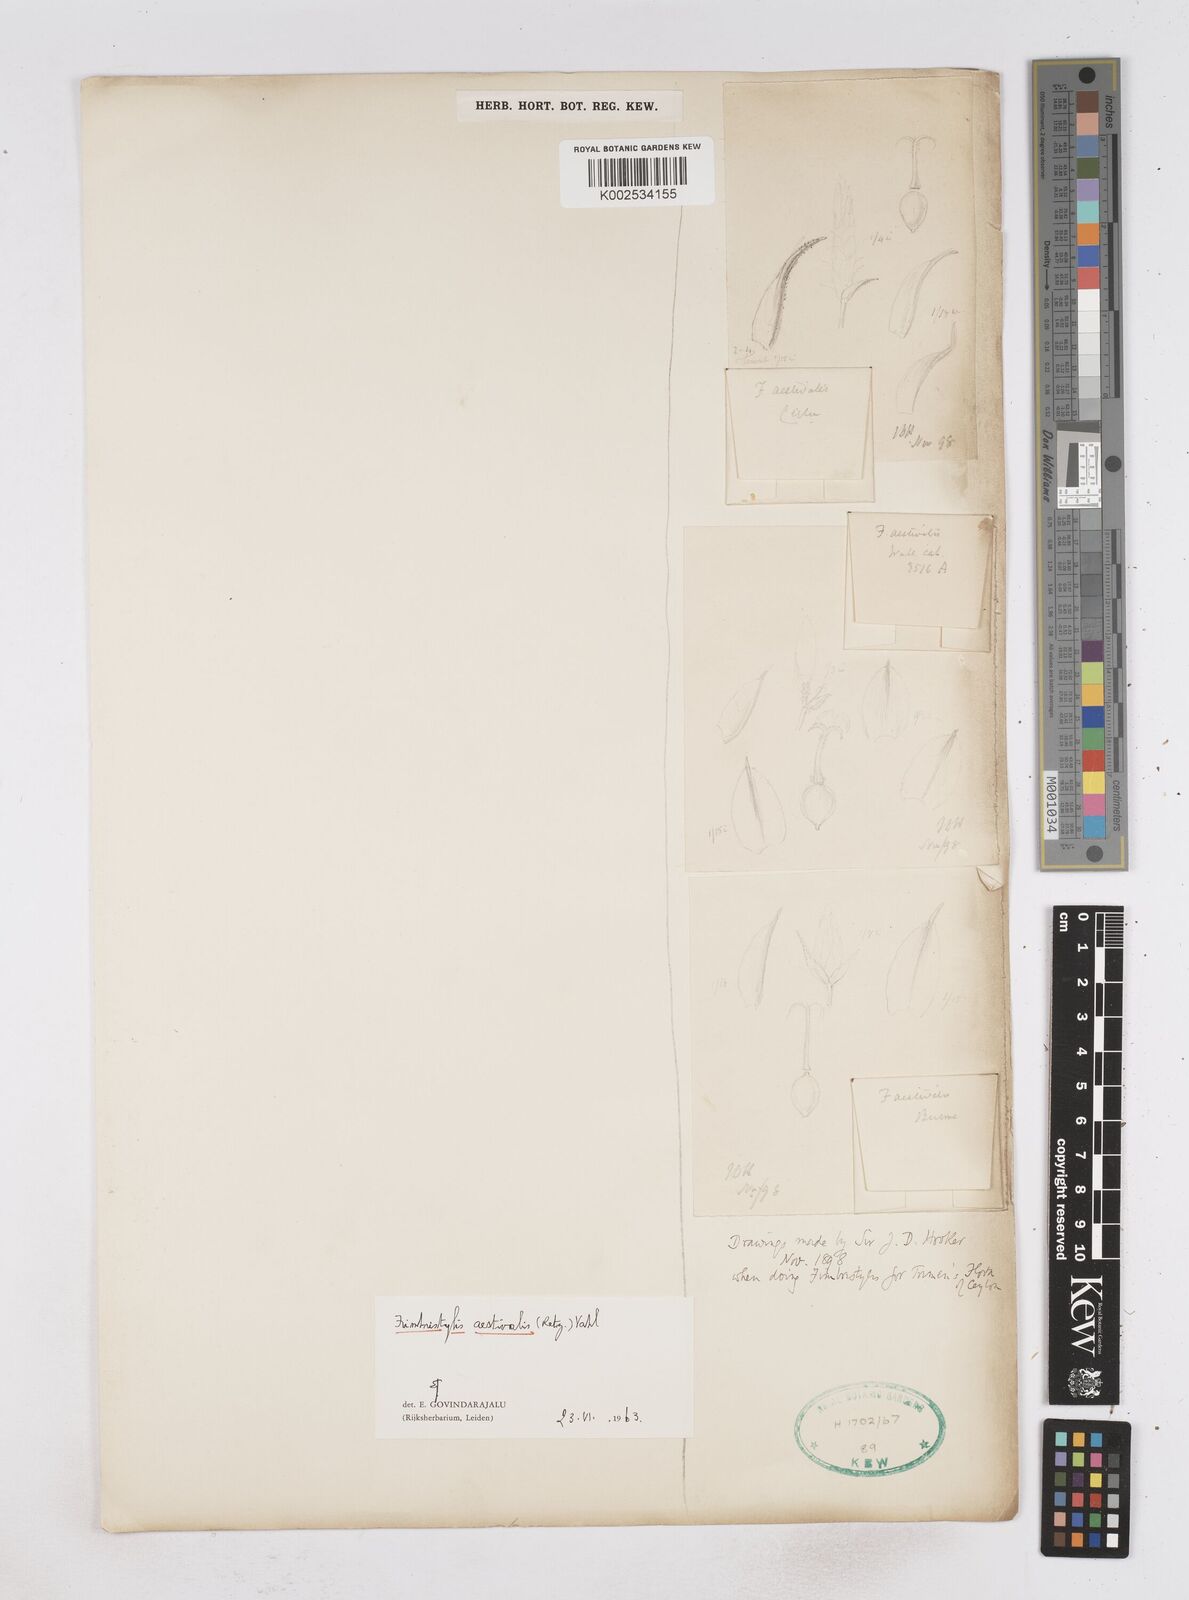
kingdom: Plantae
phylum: Tracheophyta
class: Liliopsida
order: Poales
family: Cyperaceae
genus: Fimbristylis
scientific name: Fimbristylis aestivalis
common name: Summer fimbry
